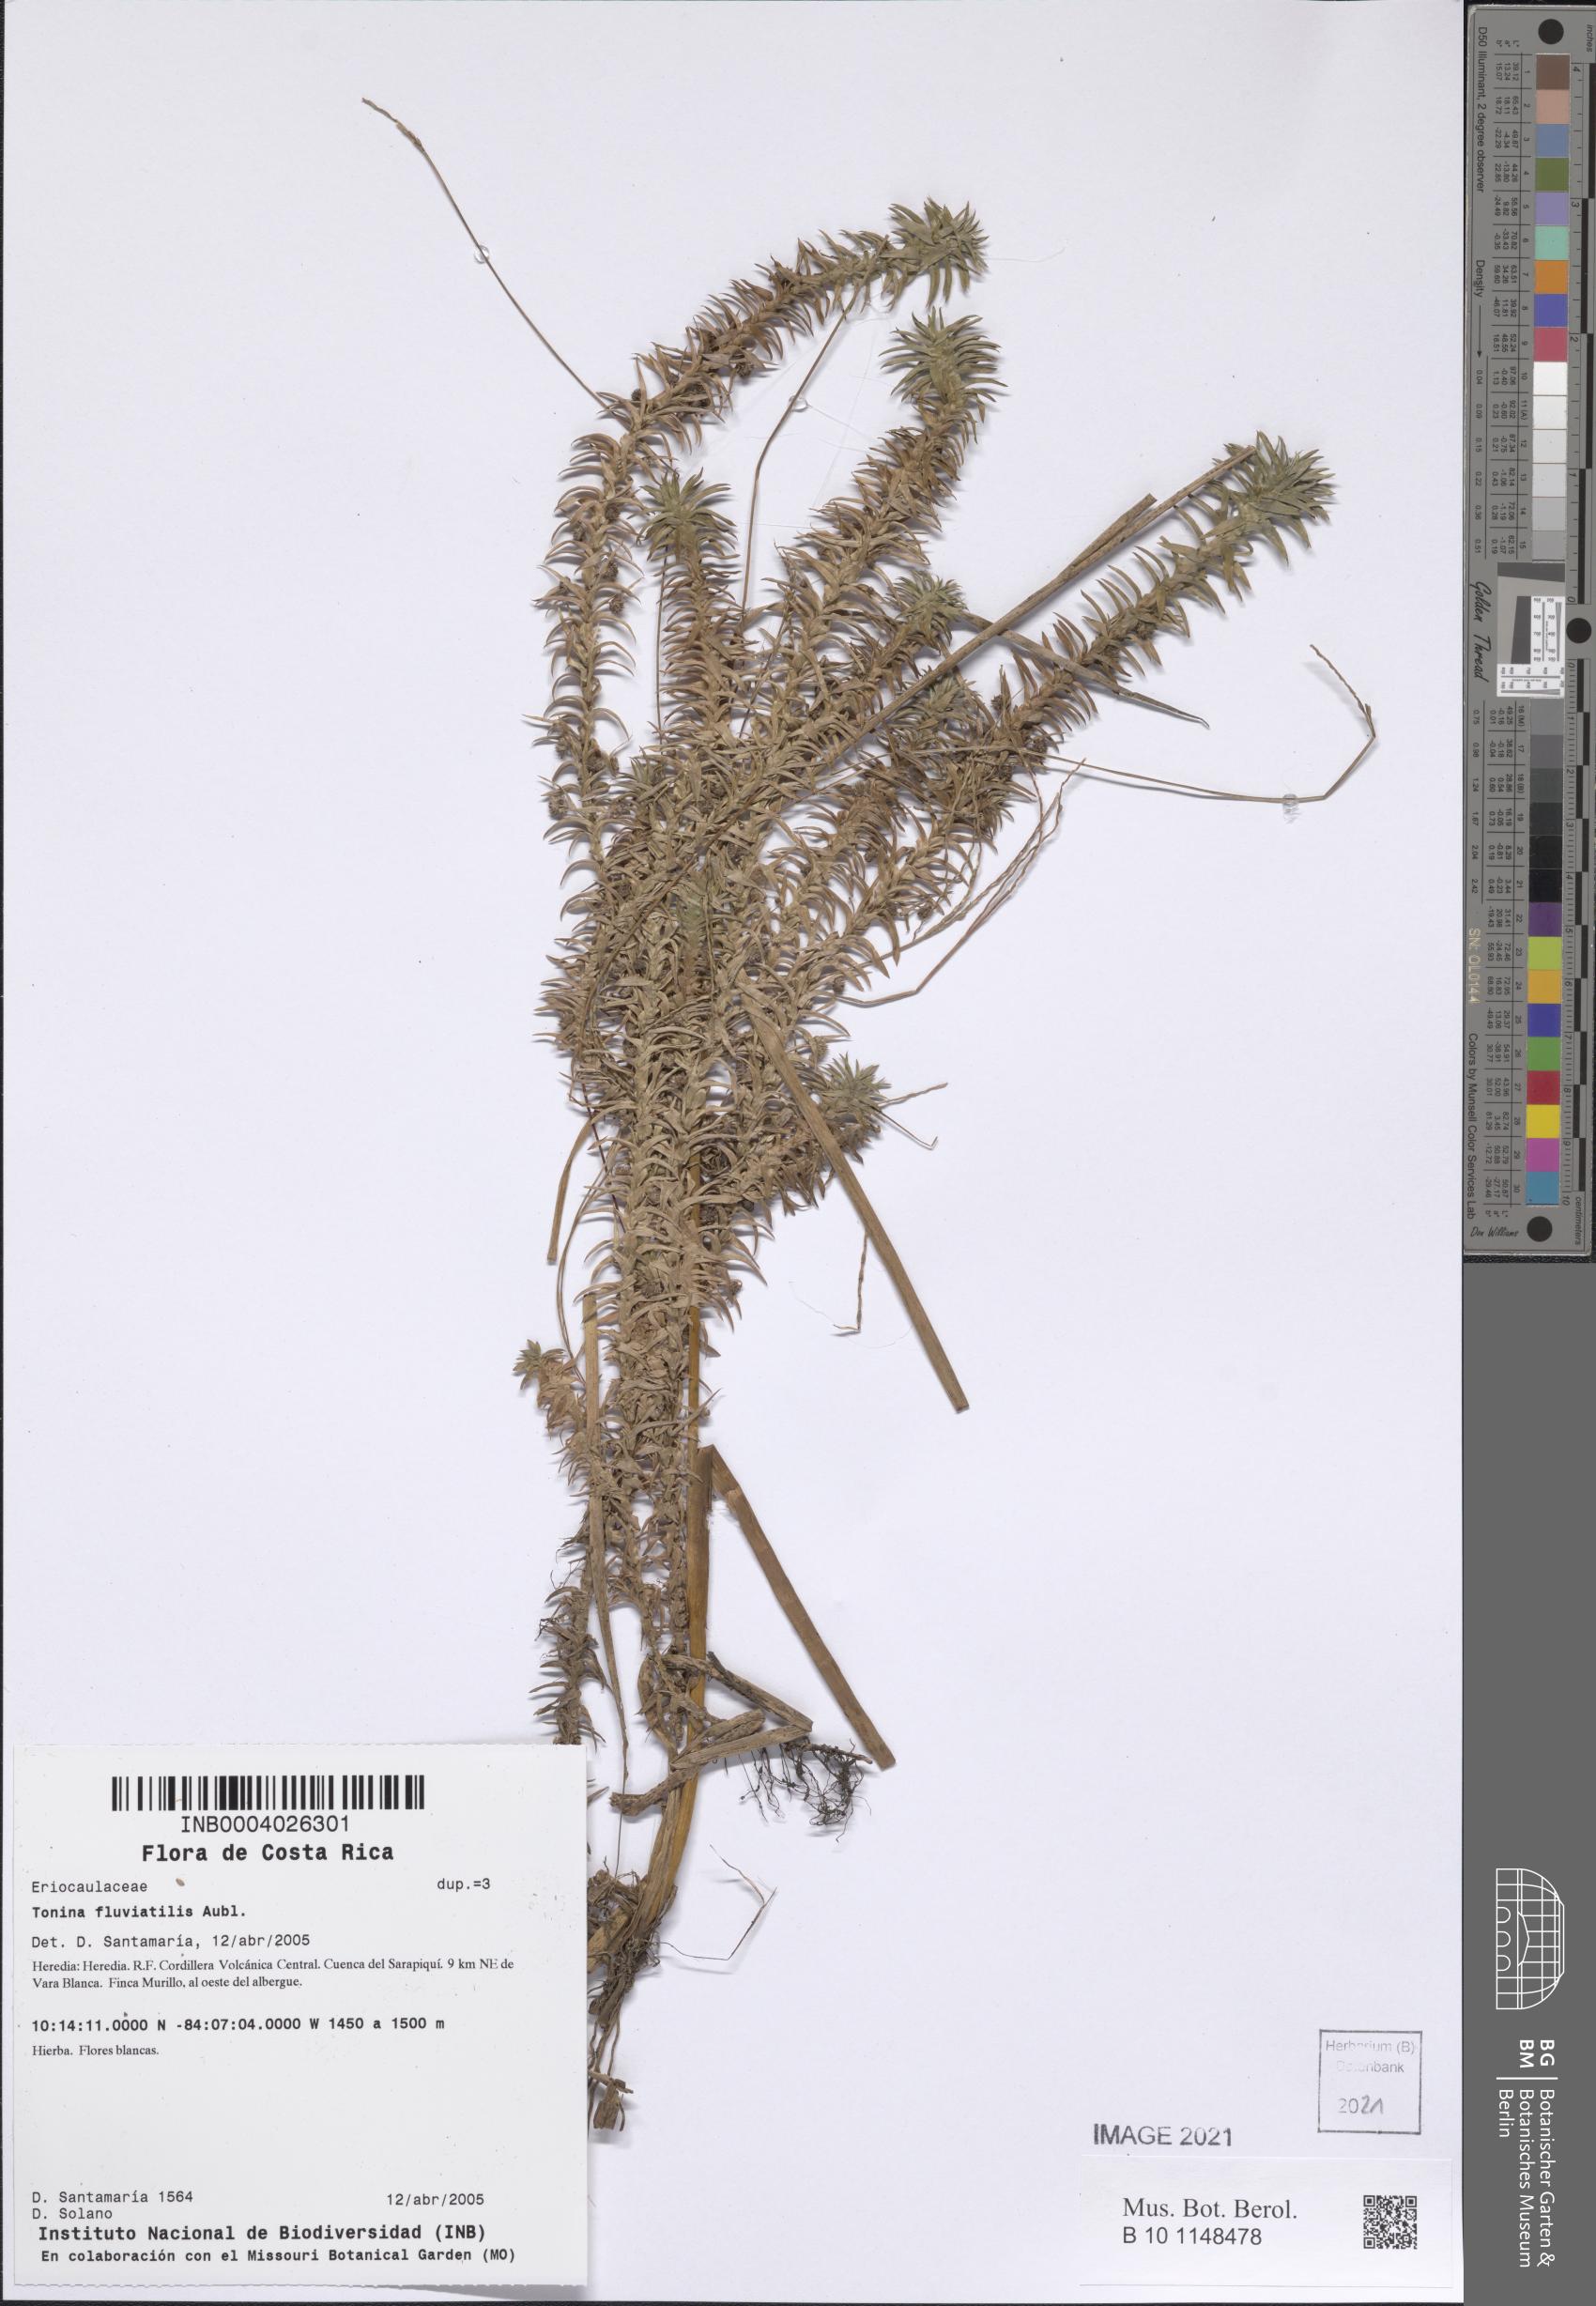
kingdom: Plantae
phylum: Tracheophyta
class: Liliopsida
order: Poales
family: Eriocaulaceae
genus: Paepalanthus
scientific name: Paepalanthus fluviatilis
